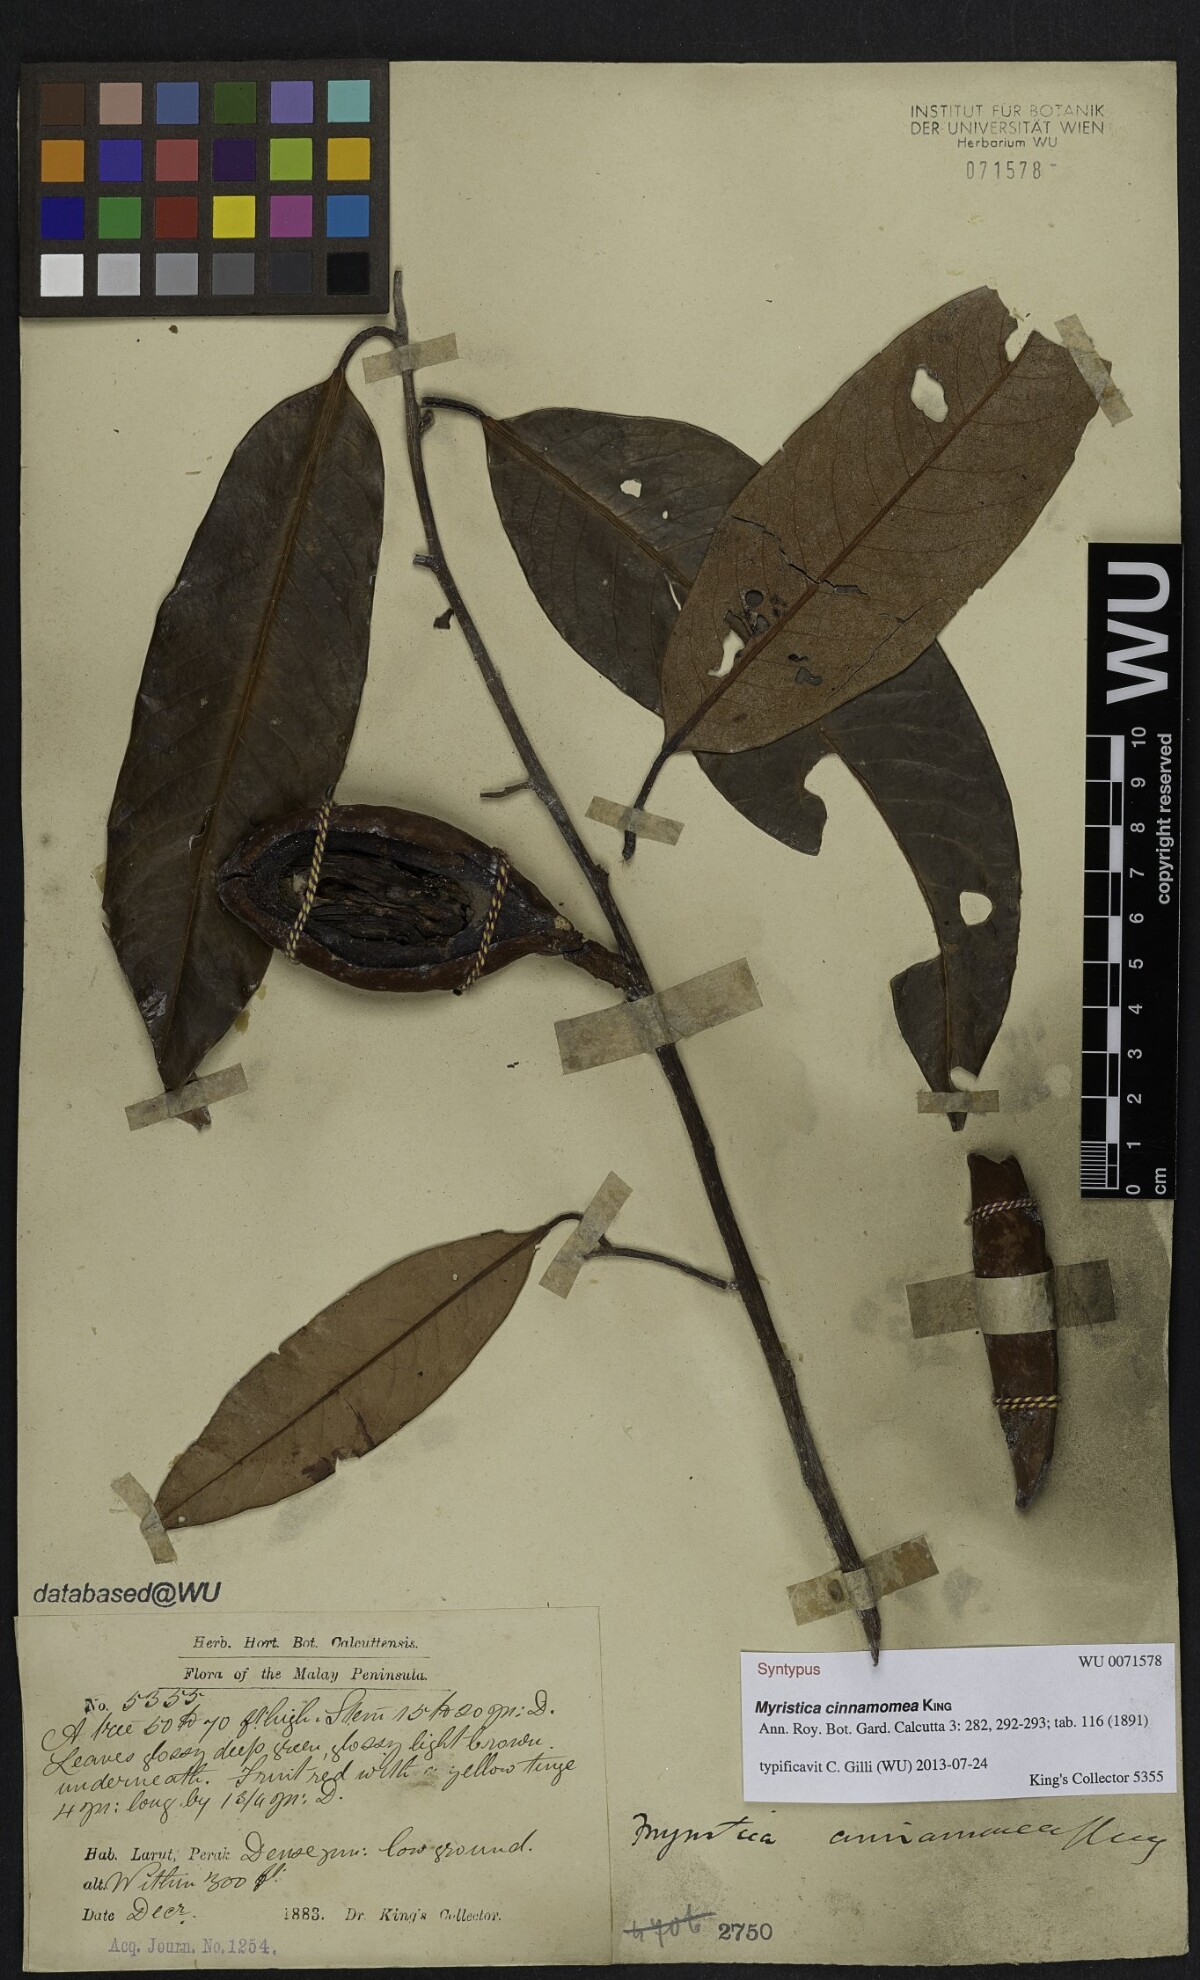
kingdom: Plantae
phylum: Tracheophyta
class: Magnoliopsida
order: Magnoliales
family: Myristicaceae
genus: Myristica
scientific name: Myristica cinnamomea
